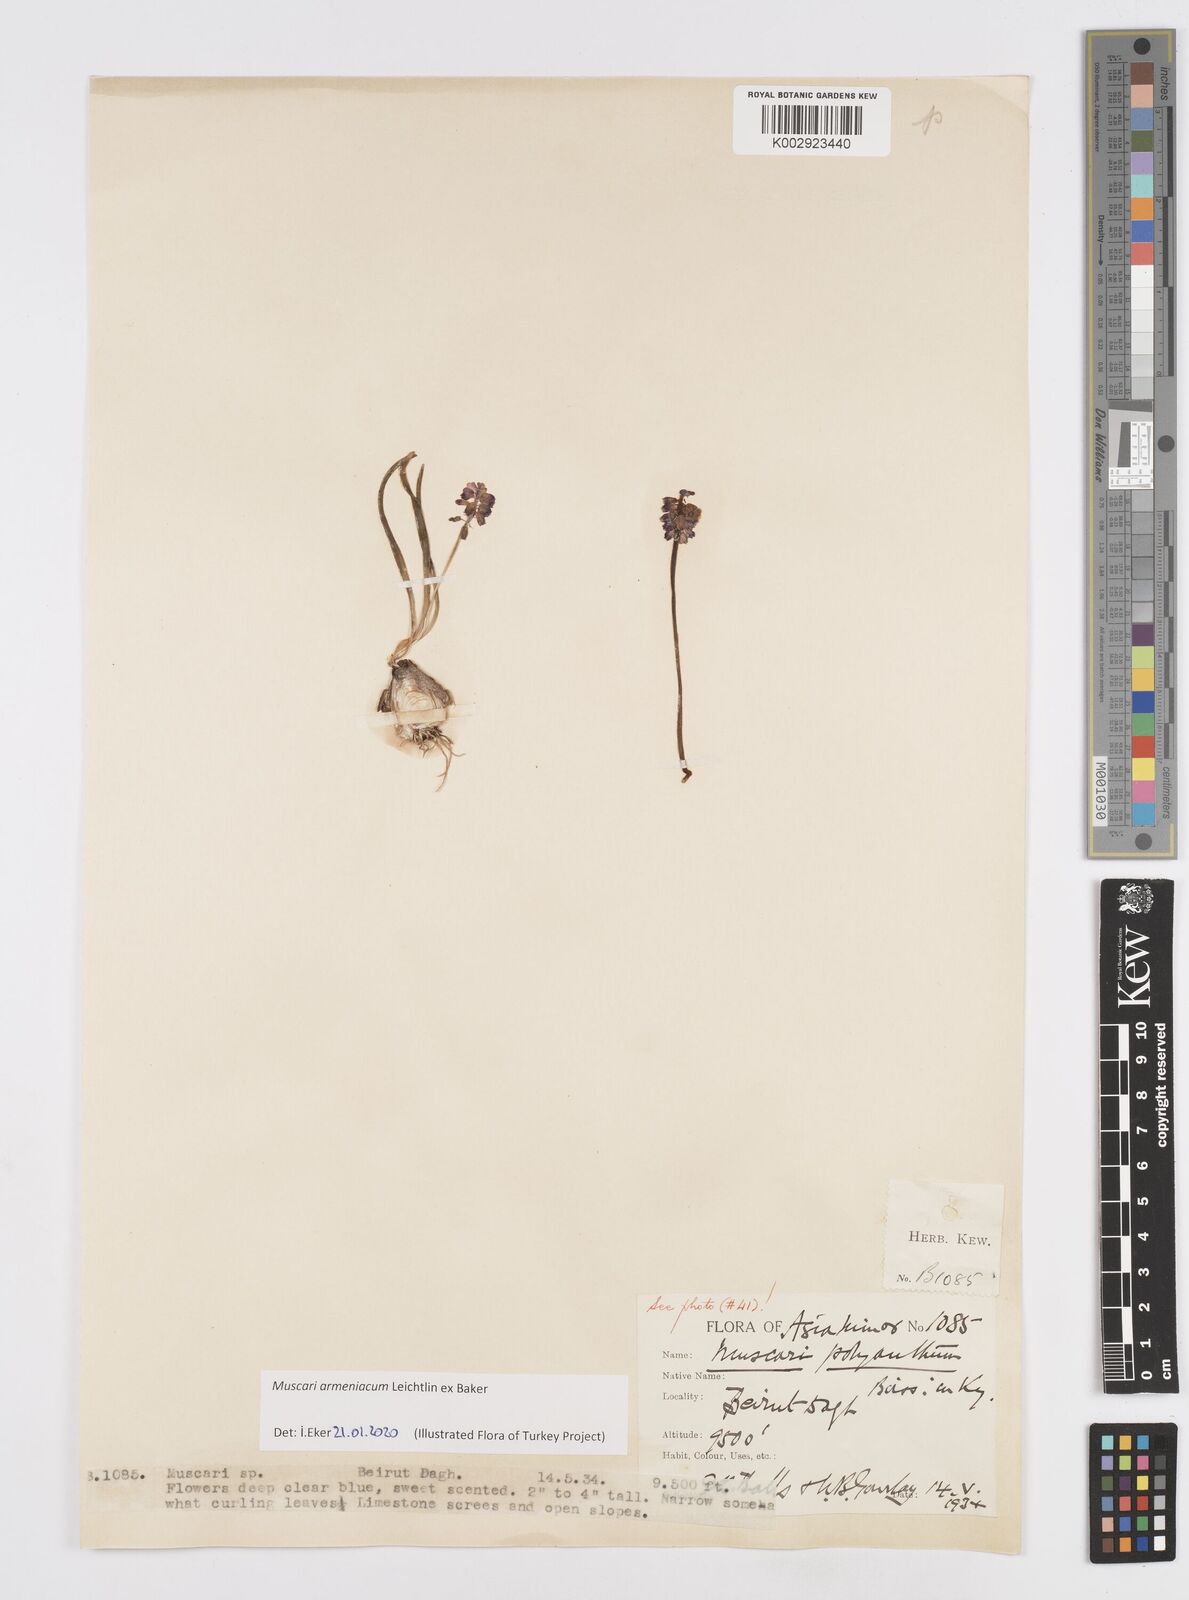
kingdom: Plantae
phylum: Tracheophyta
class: Liliopsida
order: Asparagales
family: Asparagaceae
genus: Muscari
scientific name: Muscari armeniacum
